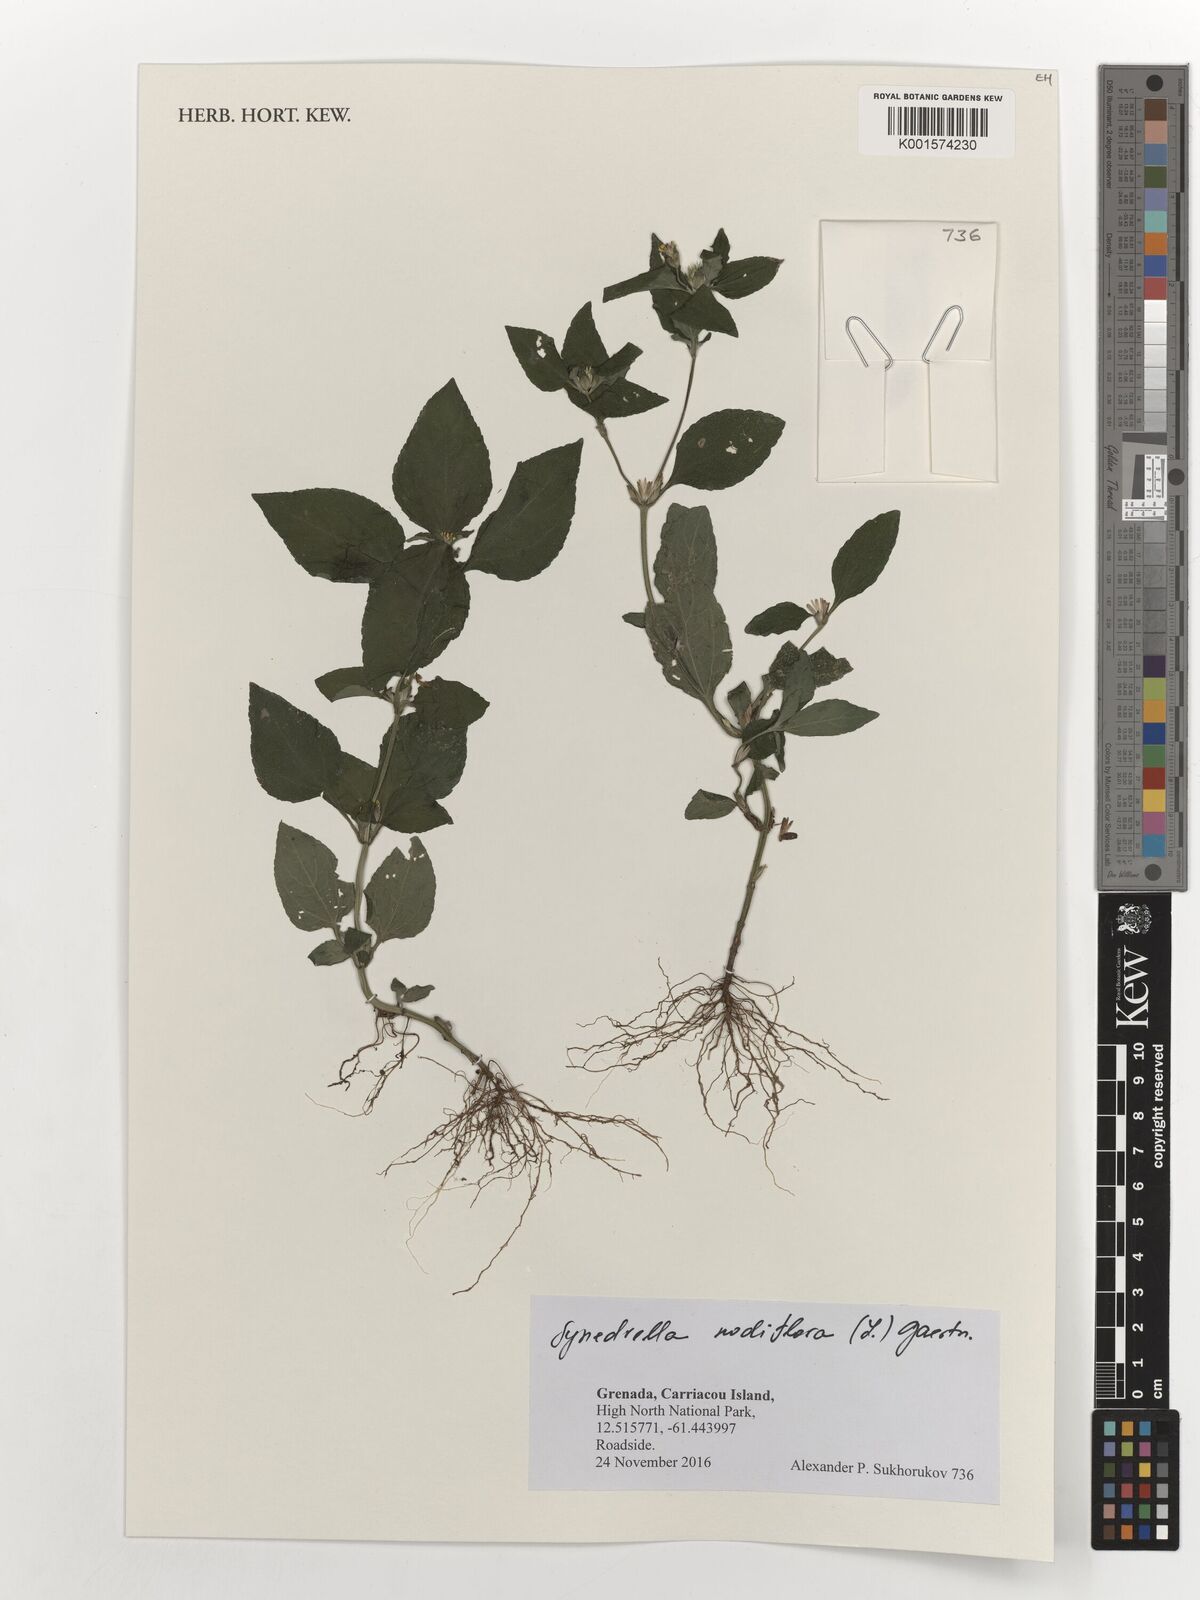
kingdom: Plantae
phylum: Tracheophyta
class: Magnoliopsida
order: Asterales
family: Asteraceae
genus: Synedrella
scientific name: Synedrella nodiflora
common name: Nodeweed
